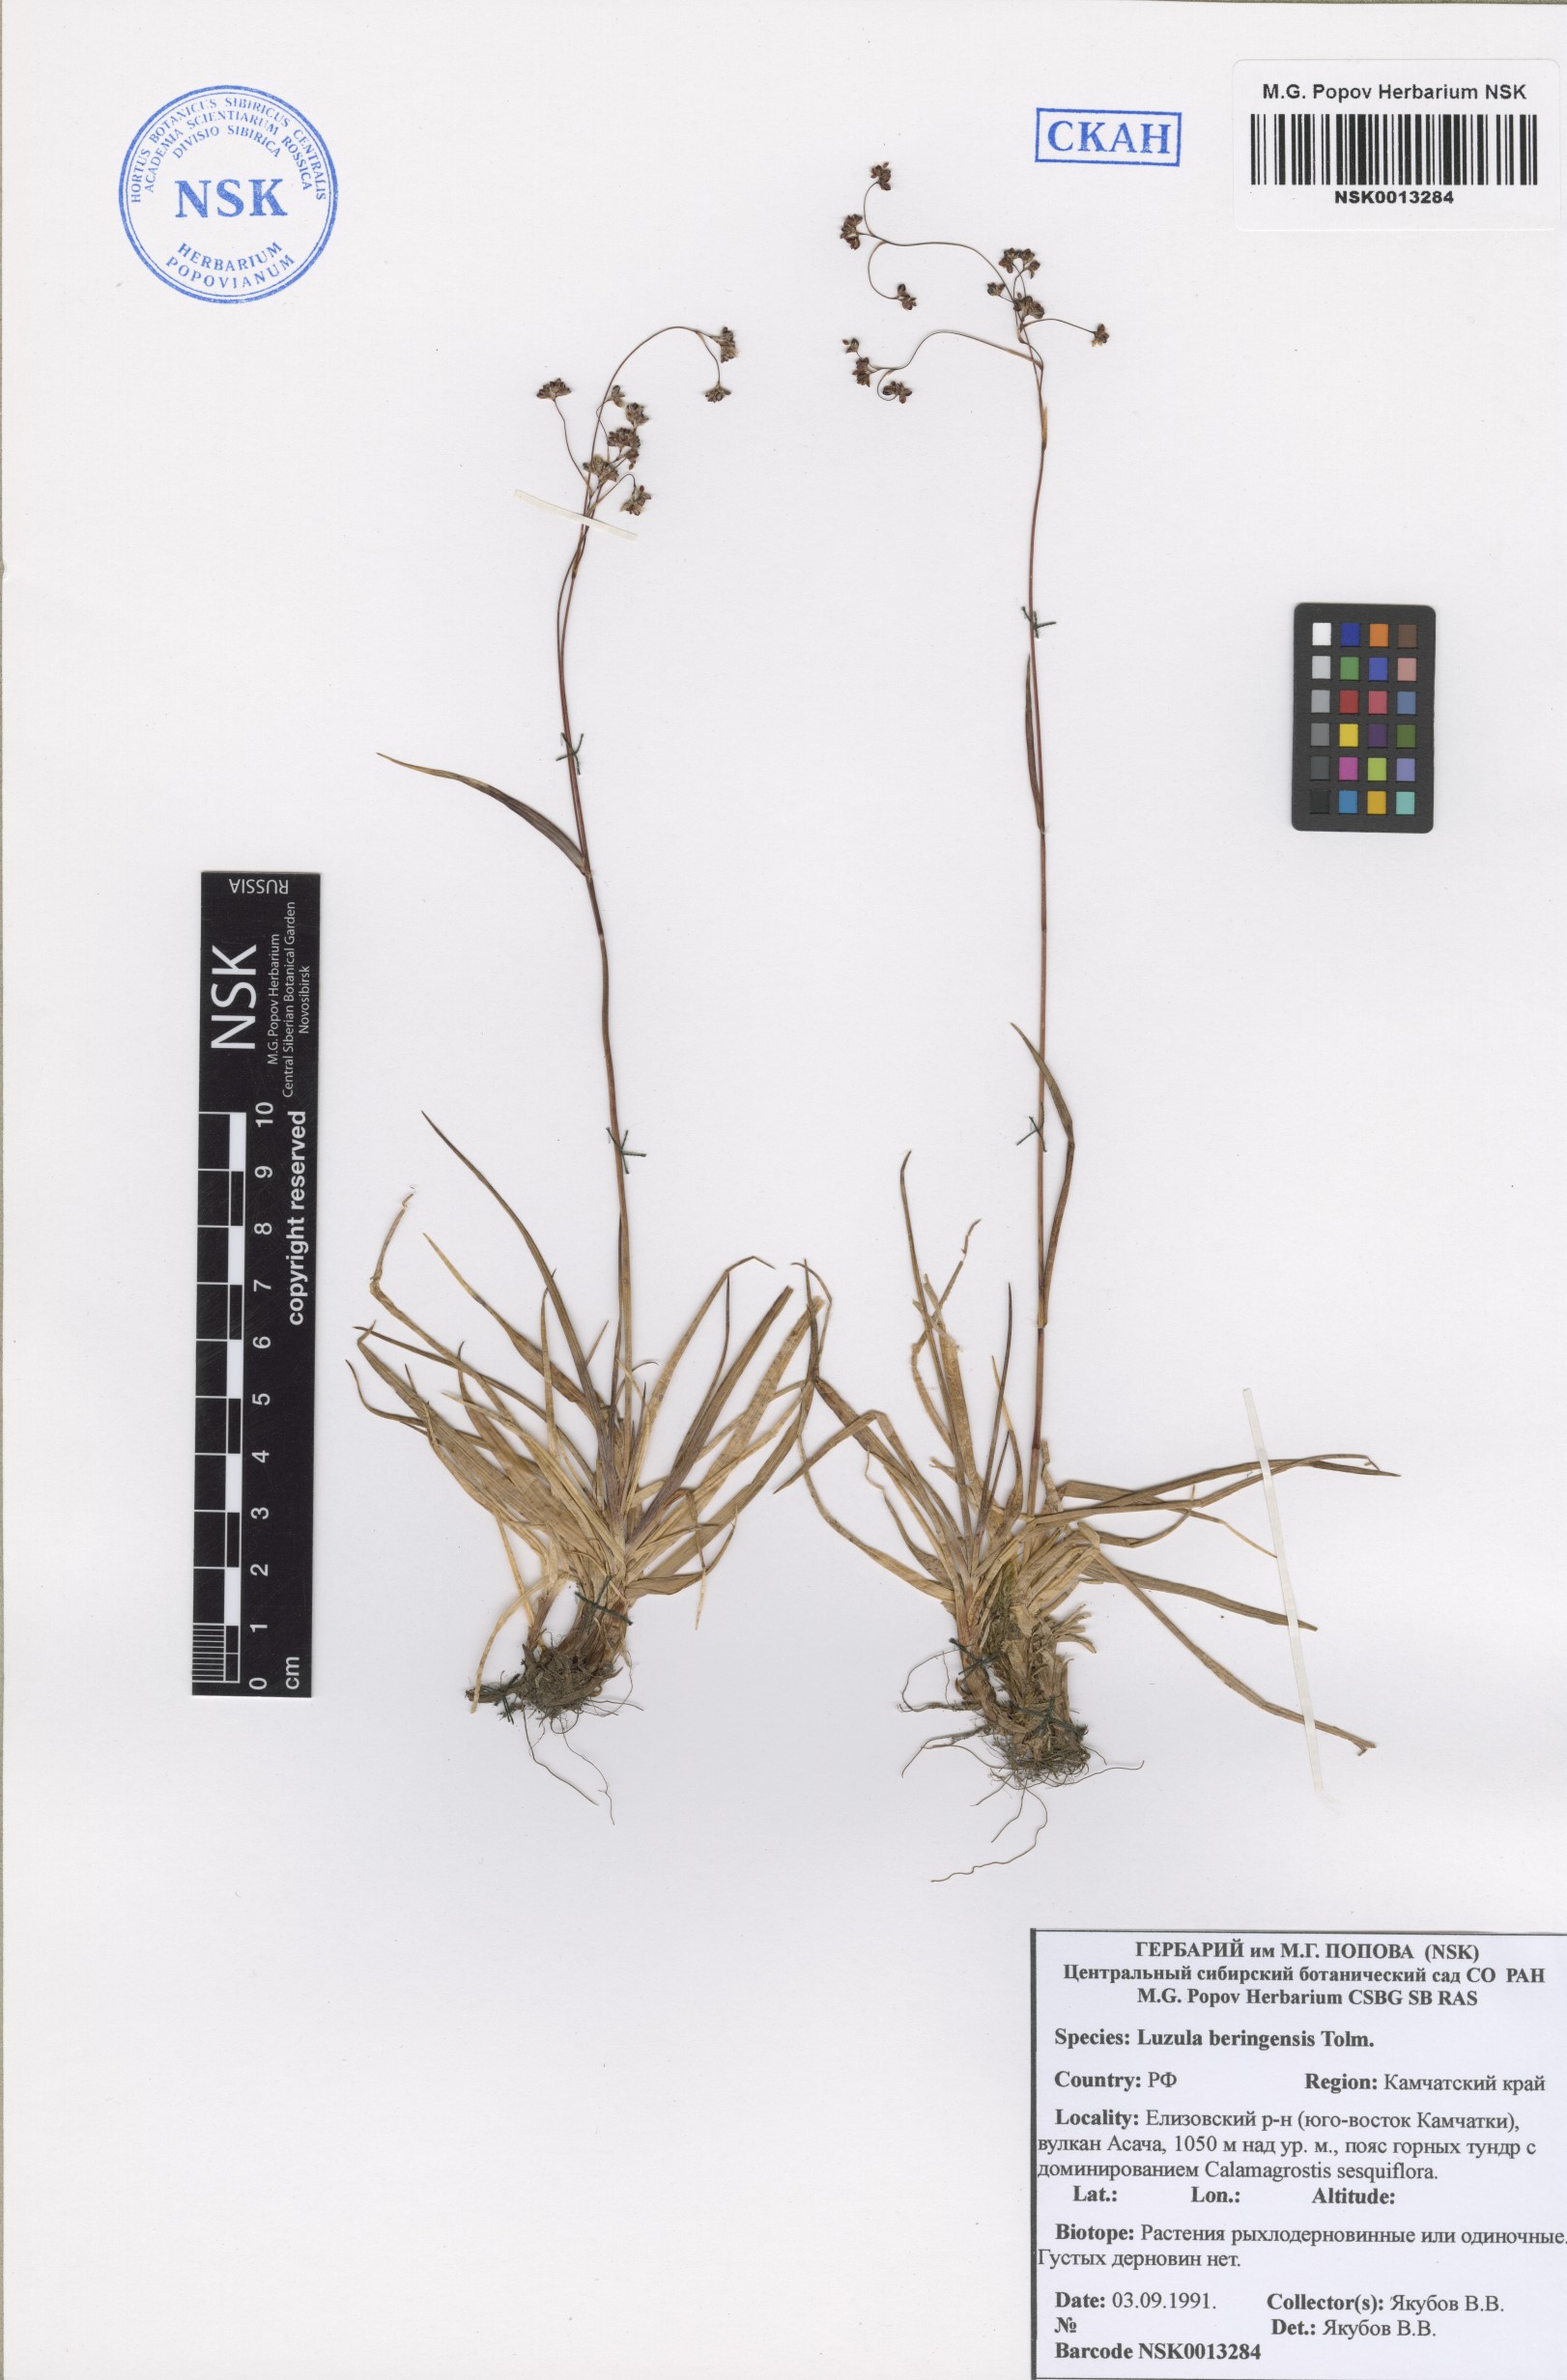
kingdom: Plantae
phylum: Tracheophyta
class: Liliopsida
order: Poales
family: Juncaceae
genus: Luzula
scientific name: Luzula arcuata
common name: Curved wood-rush
